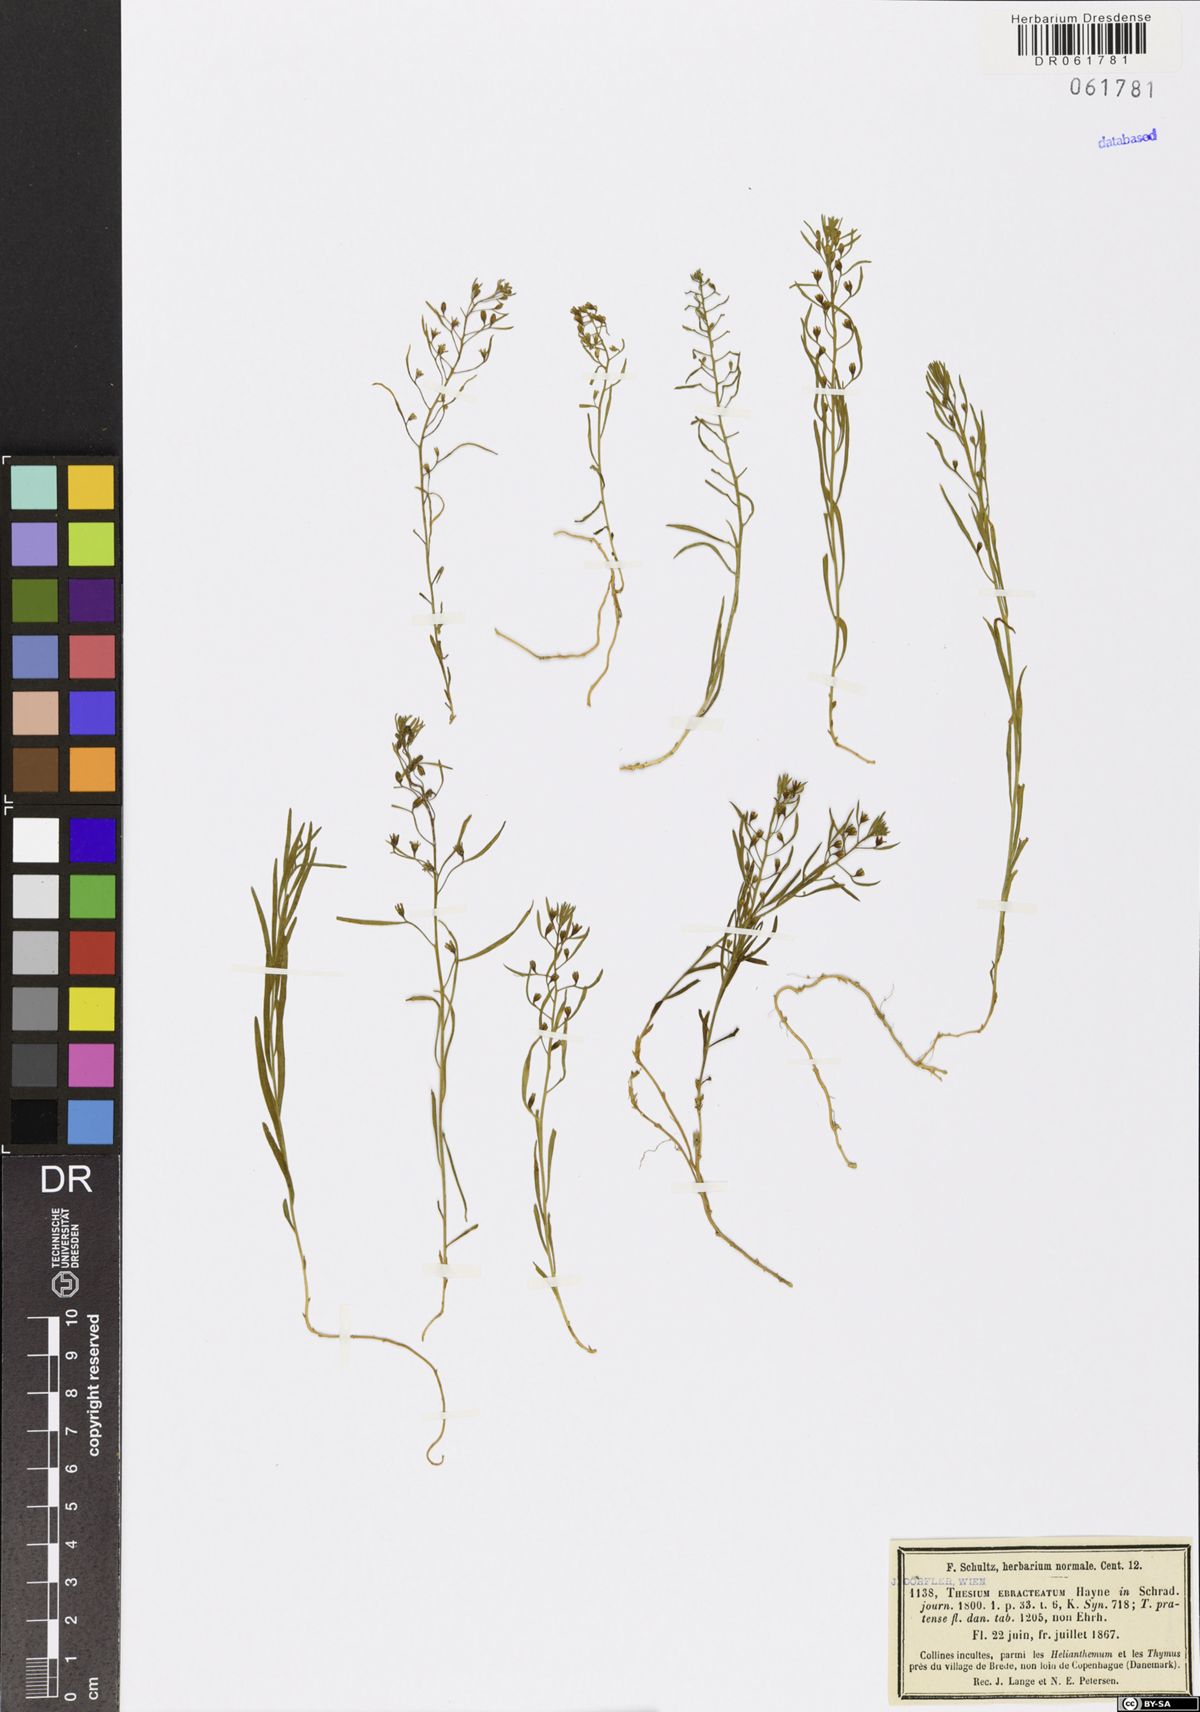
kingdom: Plantae
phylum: Tracheophyta
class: Magnoliopsida
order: Santalales
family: Thesiaceae
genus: Thesium
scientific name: Thesium ebracteatum
